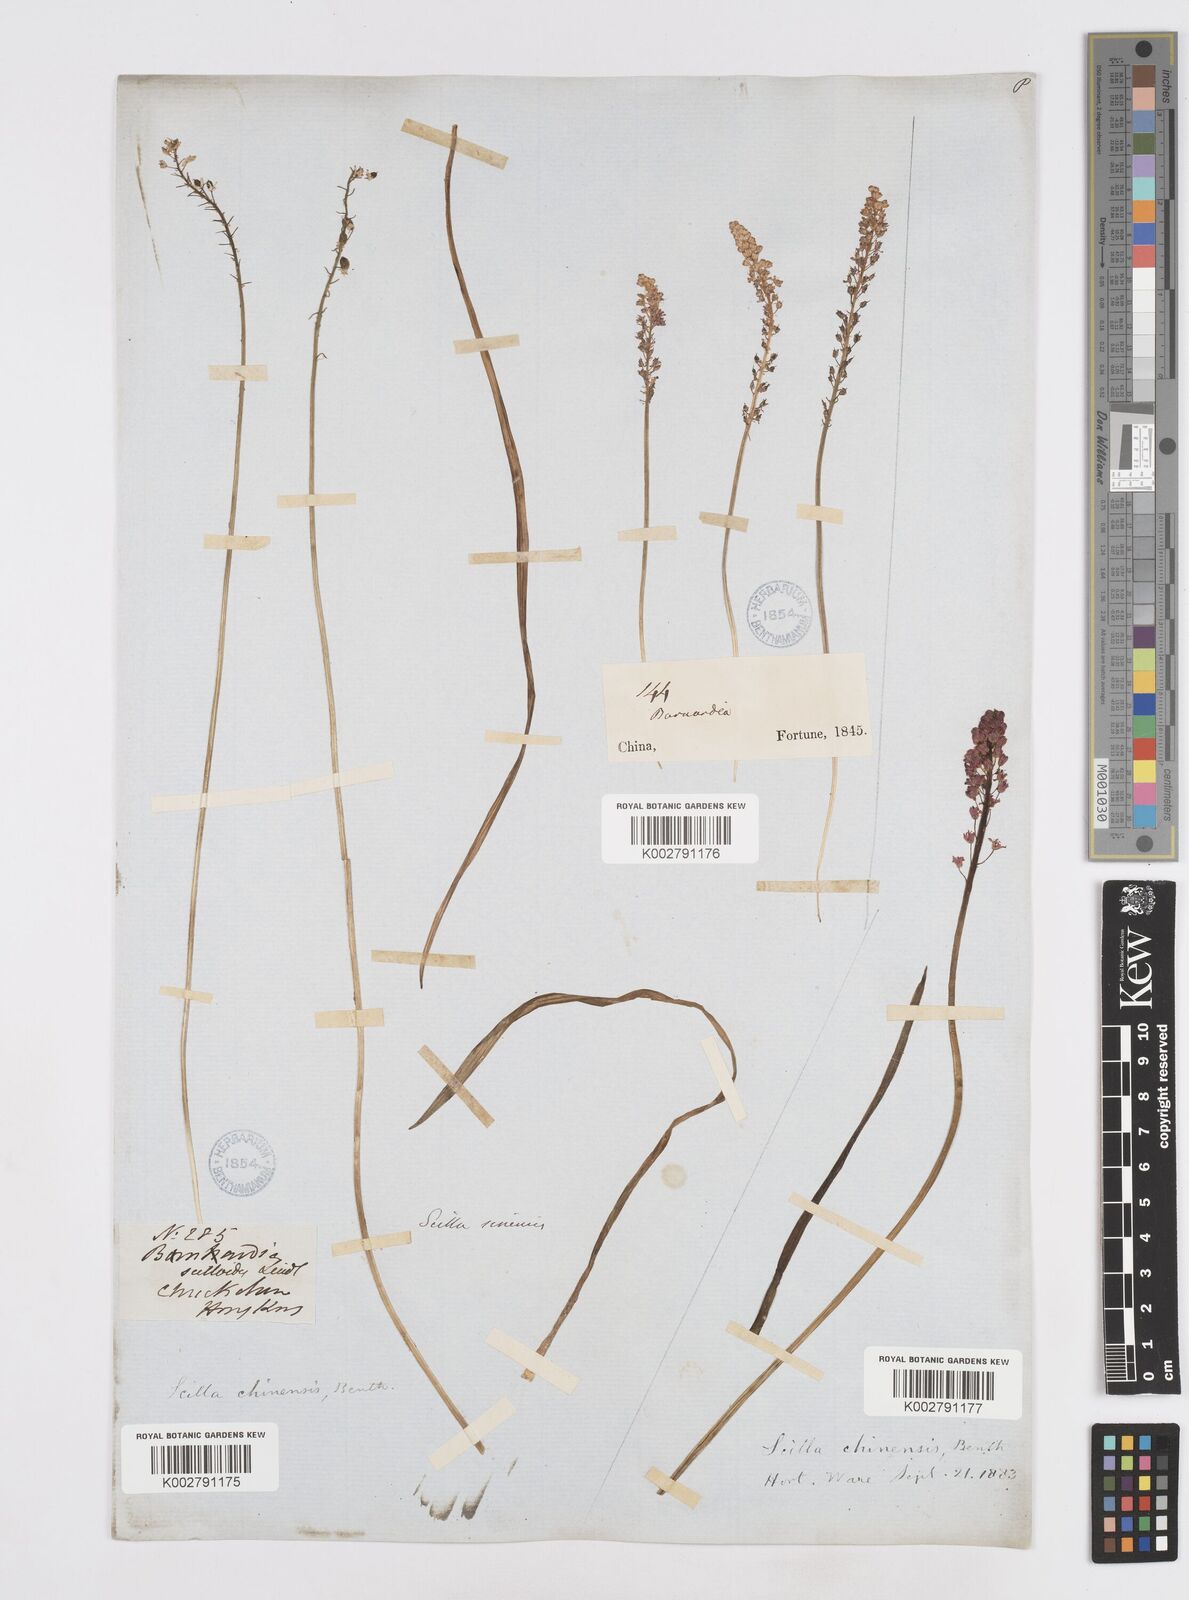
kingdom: Plantae
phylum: Tracheophyta
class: Liliopsida
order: Asparagales
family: Asparagaceae
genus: Barnardia
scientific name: Barnardia japonica
